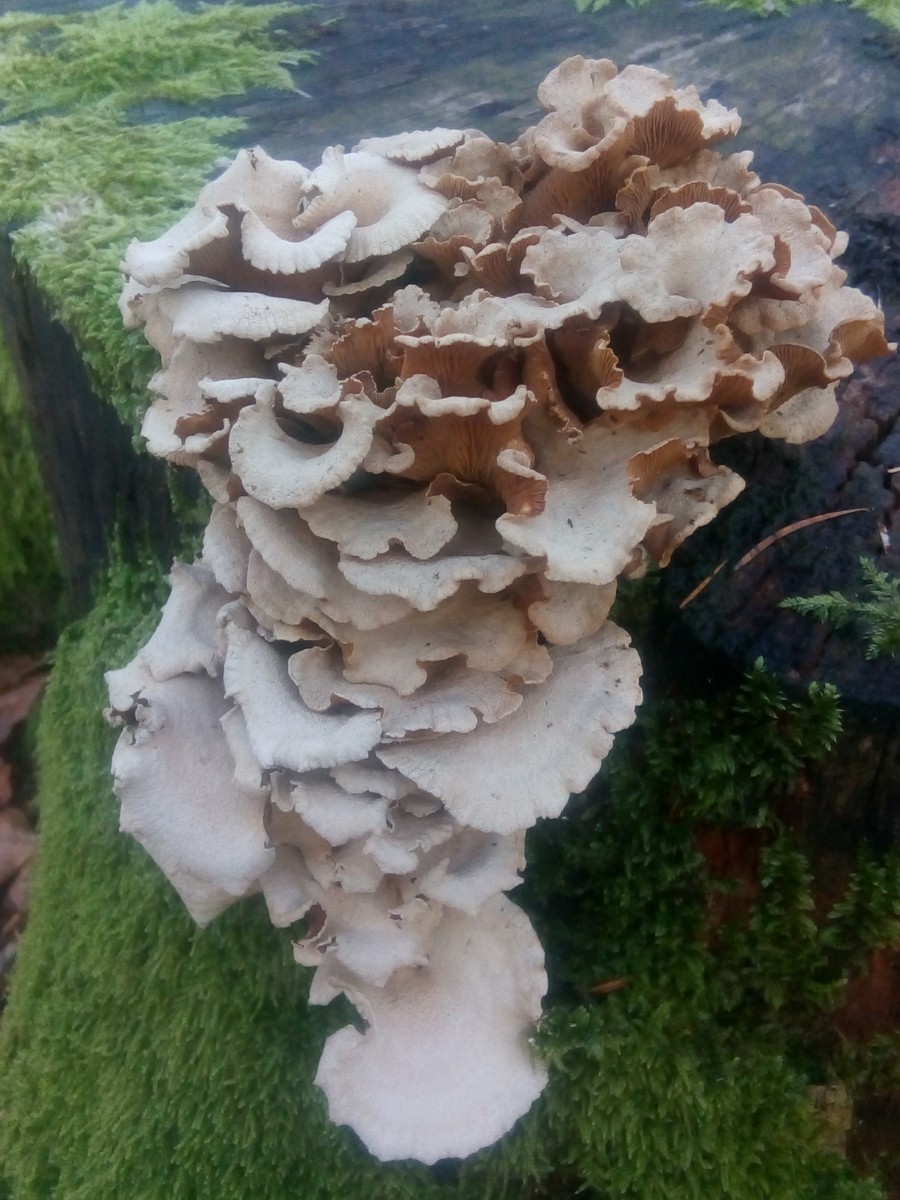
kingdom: Fungi
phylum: Basidiomycota
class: Agaricomycetes
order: Agaricales
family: Mycenaceae
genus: Panellus
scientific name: Panellus stipticus
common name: kliddet epaulethat
